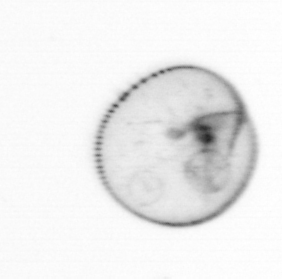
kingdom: Chromista
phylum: Myzozoa
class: Dinophyceae
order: Noctilucales
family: Noctilucaceae
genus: Noctiluca
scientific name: Noctiluca scintillans
